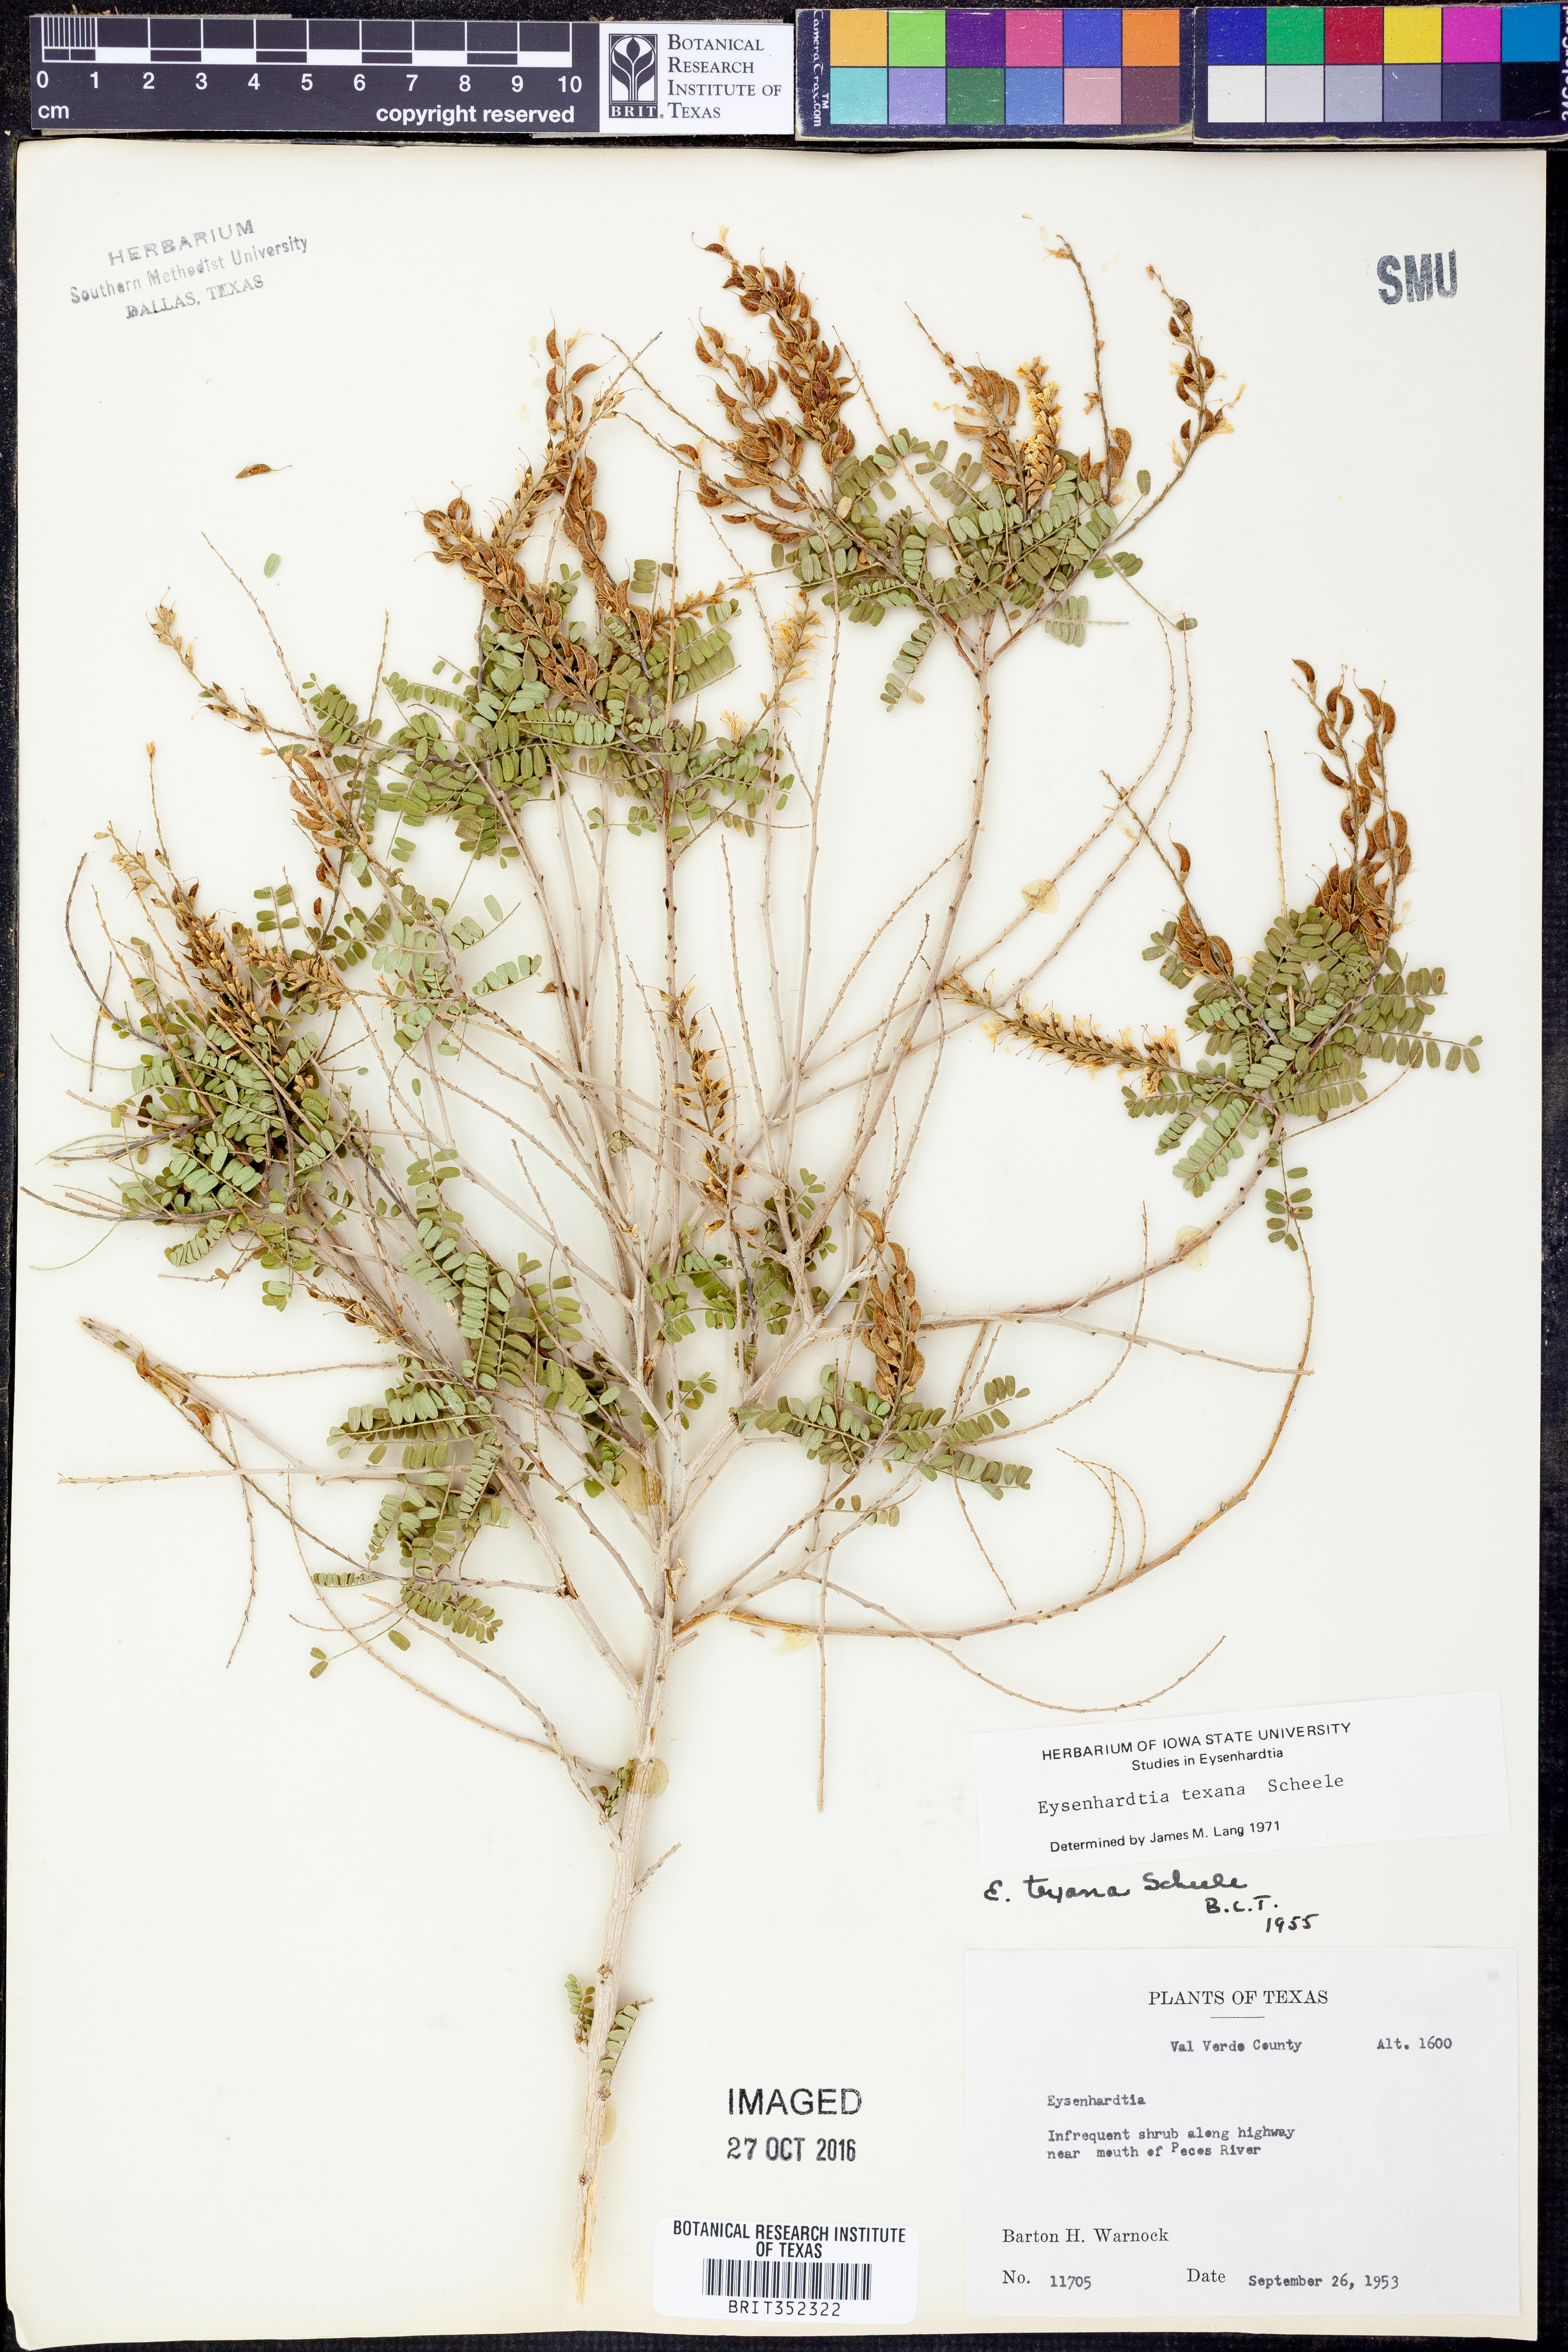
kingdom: Plantae
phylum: Tracheophyta
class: Magnoliopsida
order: Fabales
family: Fabaceae
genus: Eysenhardtia
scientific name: Eysenhardtia texana
